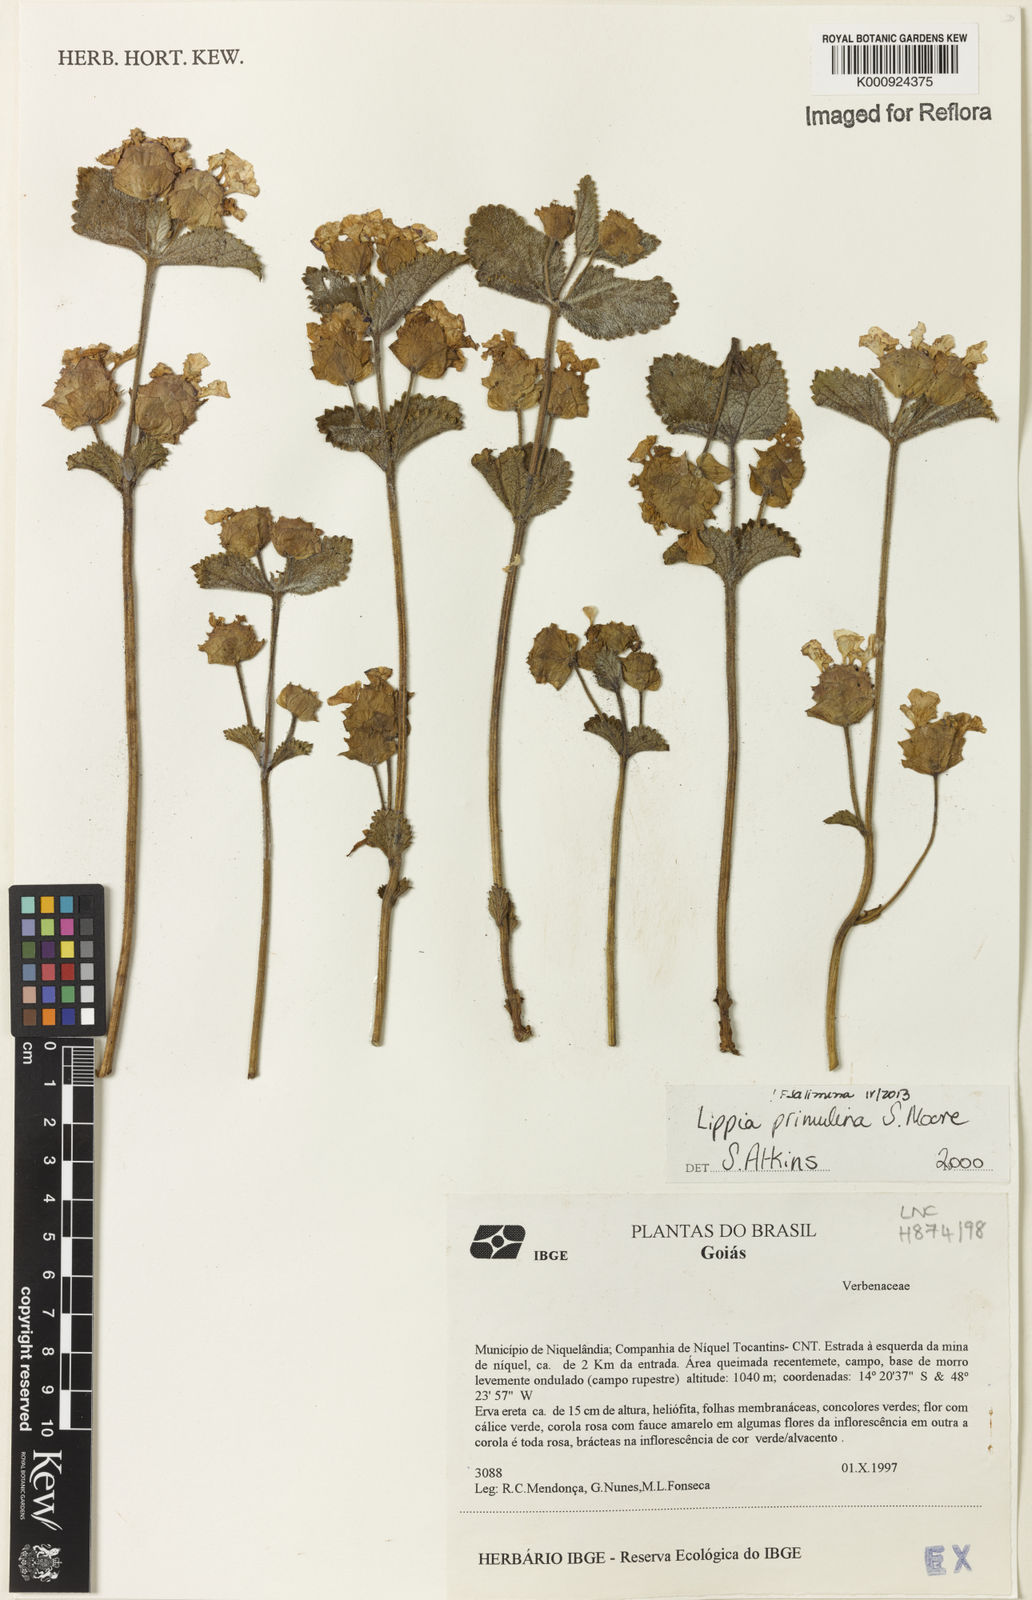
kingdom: Plantae
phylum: Tracheophyta
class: Magnoliopsida
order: Lamiales
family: Verbenaceae
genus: Lippia
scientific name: Lippia primulina
